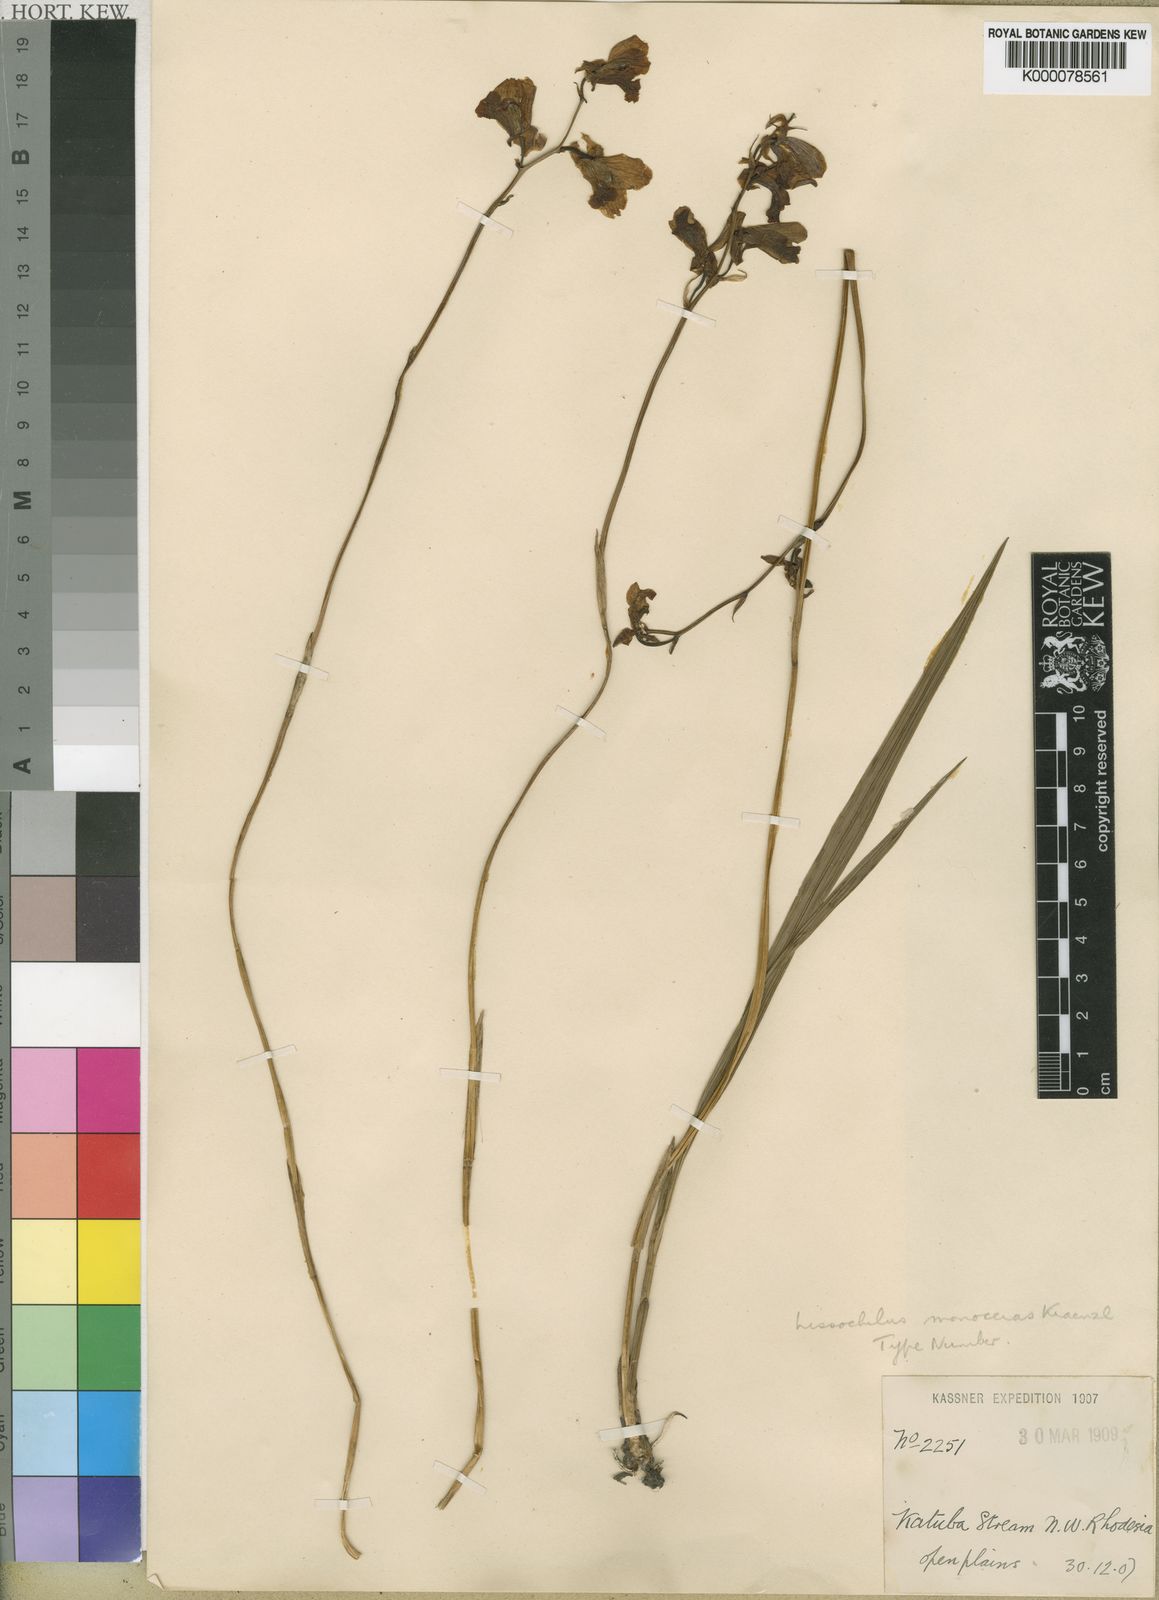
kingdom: Plantae
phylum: Tracheophyta
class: Liliopsida
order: Asparagales
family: Orchidaceae
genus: Eulophia
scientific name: Eulophia calantha
